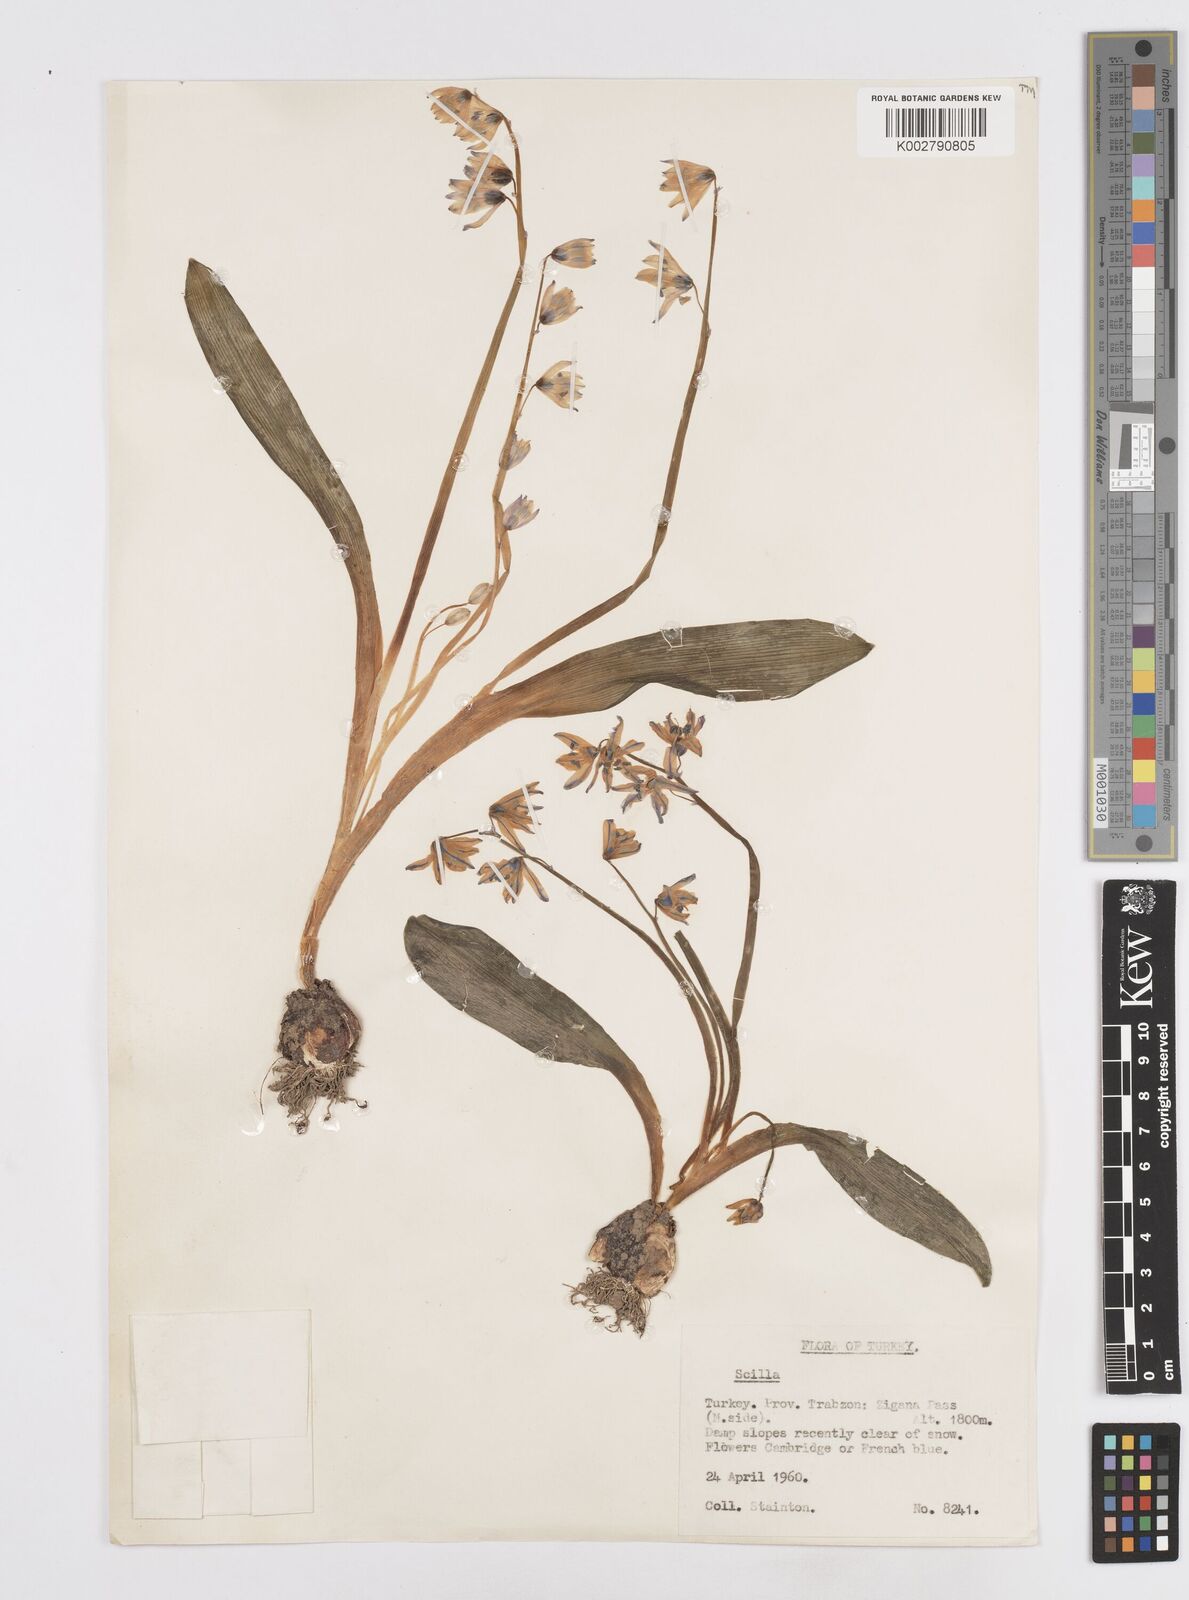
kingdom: Plantae
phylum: Tracheophyta
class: Liliopsida
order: Asparagales
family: Asparagaceae
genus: Scilla
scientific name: Scilla siberica
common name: Siberian squill
